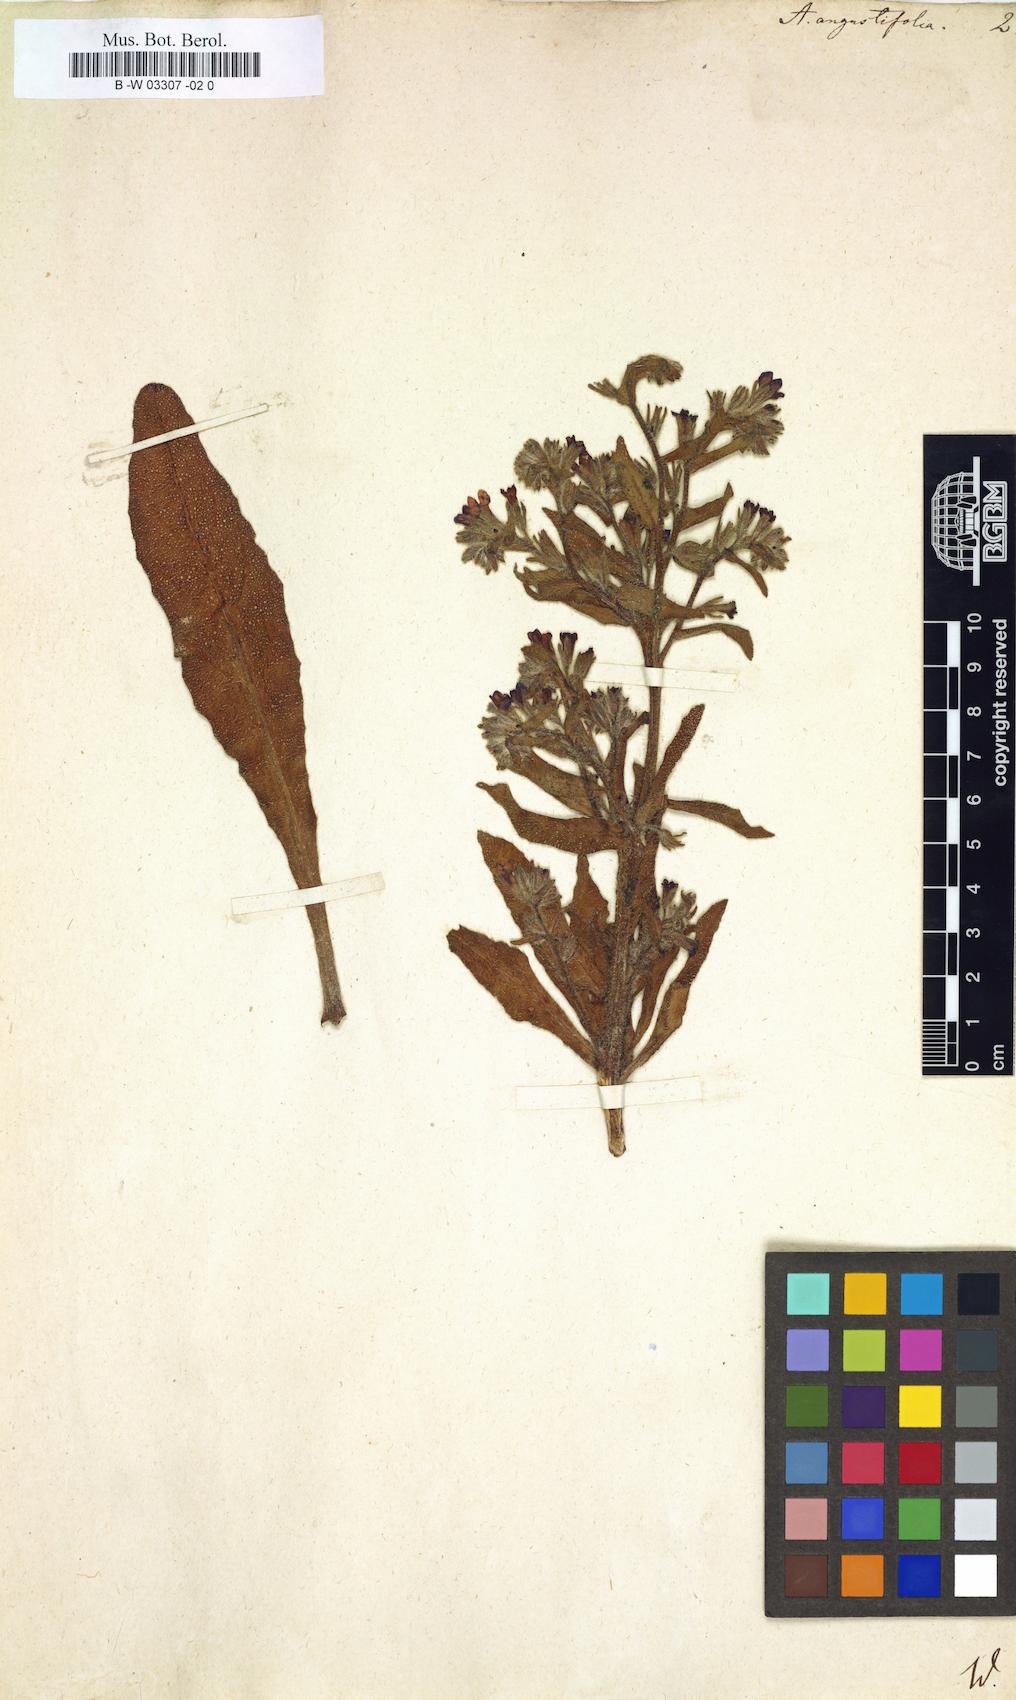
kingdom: Plantae
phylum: Tracheophyta
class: Magnoliopsida
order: Boraginales
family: Boraginaceae
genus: Anchusa
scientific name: Anchusa officinalis
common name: Alkanet
